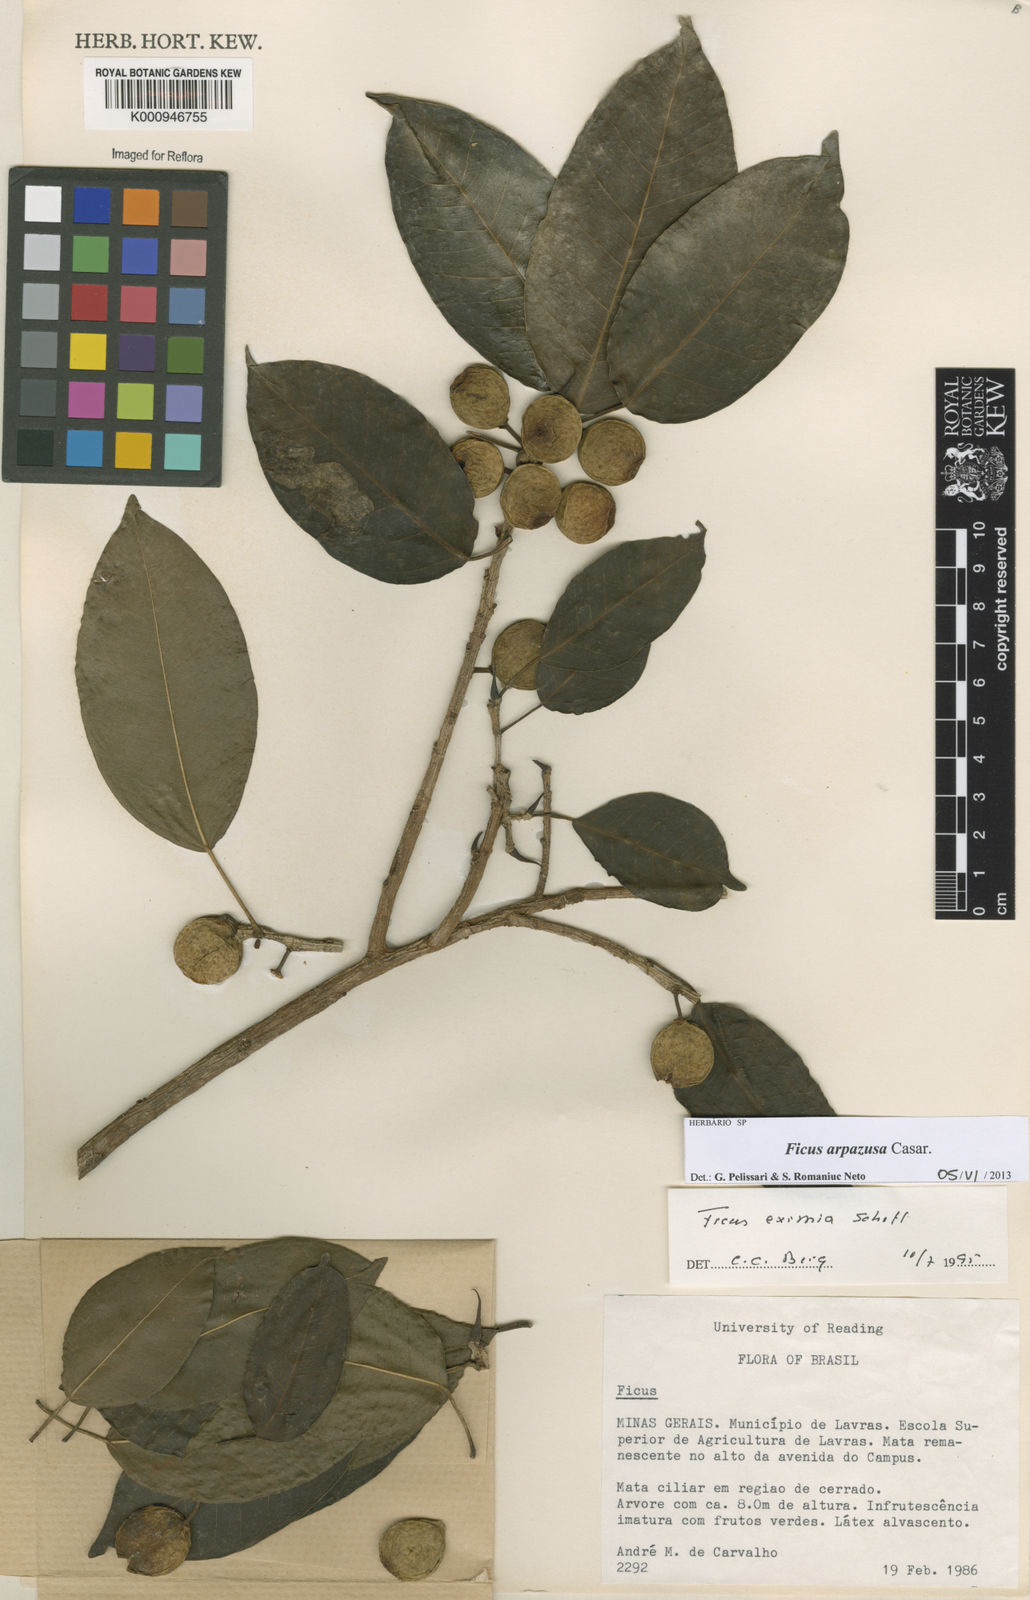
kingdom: Plantae
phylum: Tracheophyta
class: Magnoliopsida
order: Rosales
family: Moraceae
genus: Ficus
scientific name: Ficus arpazusa
